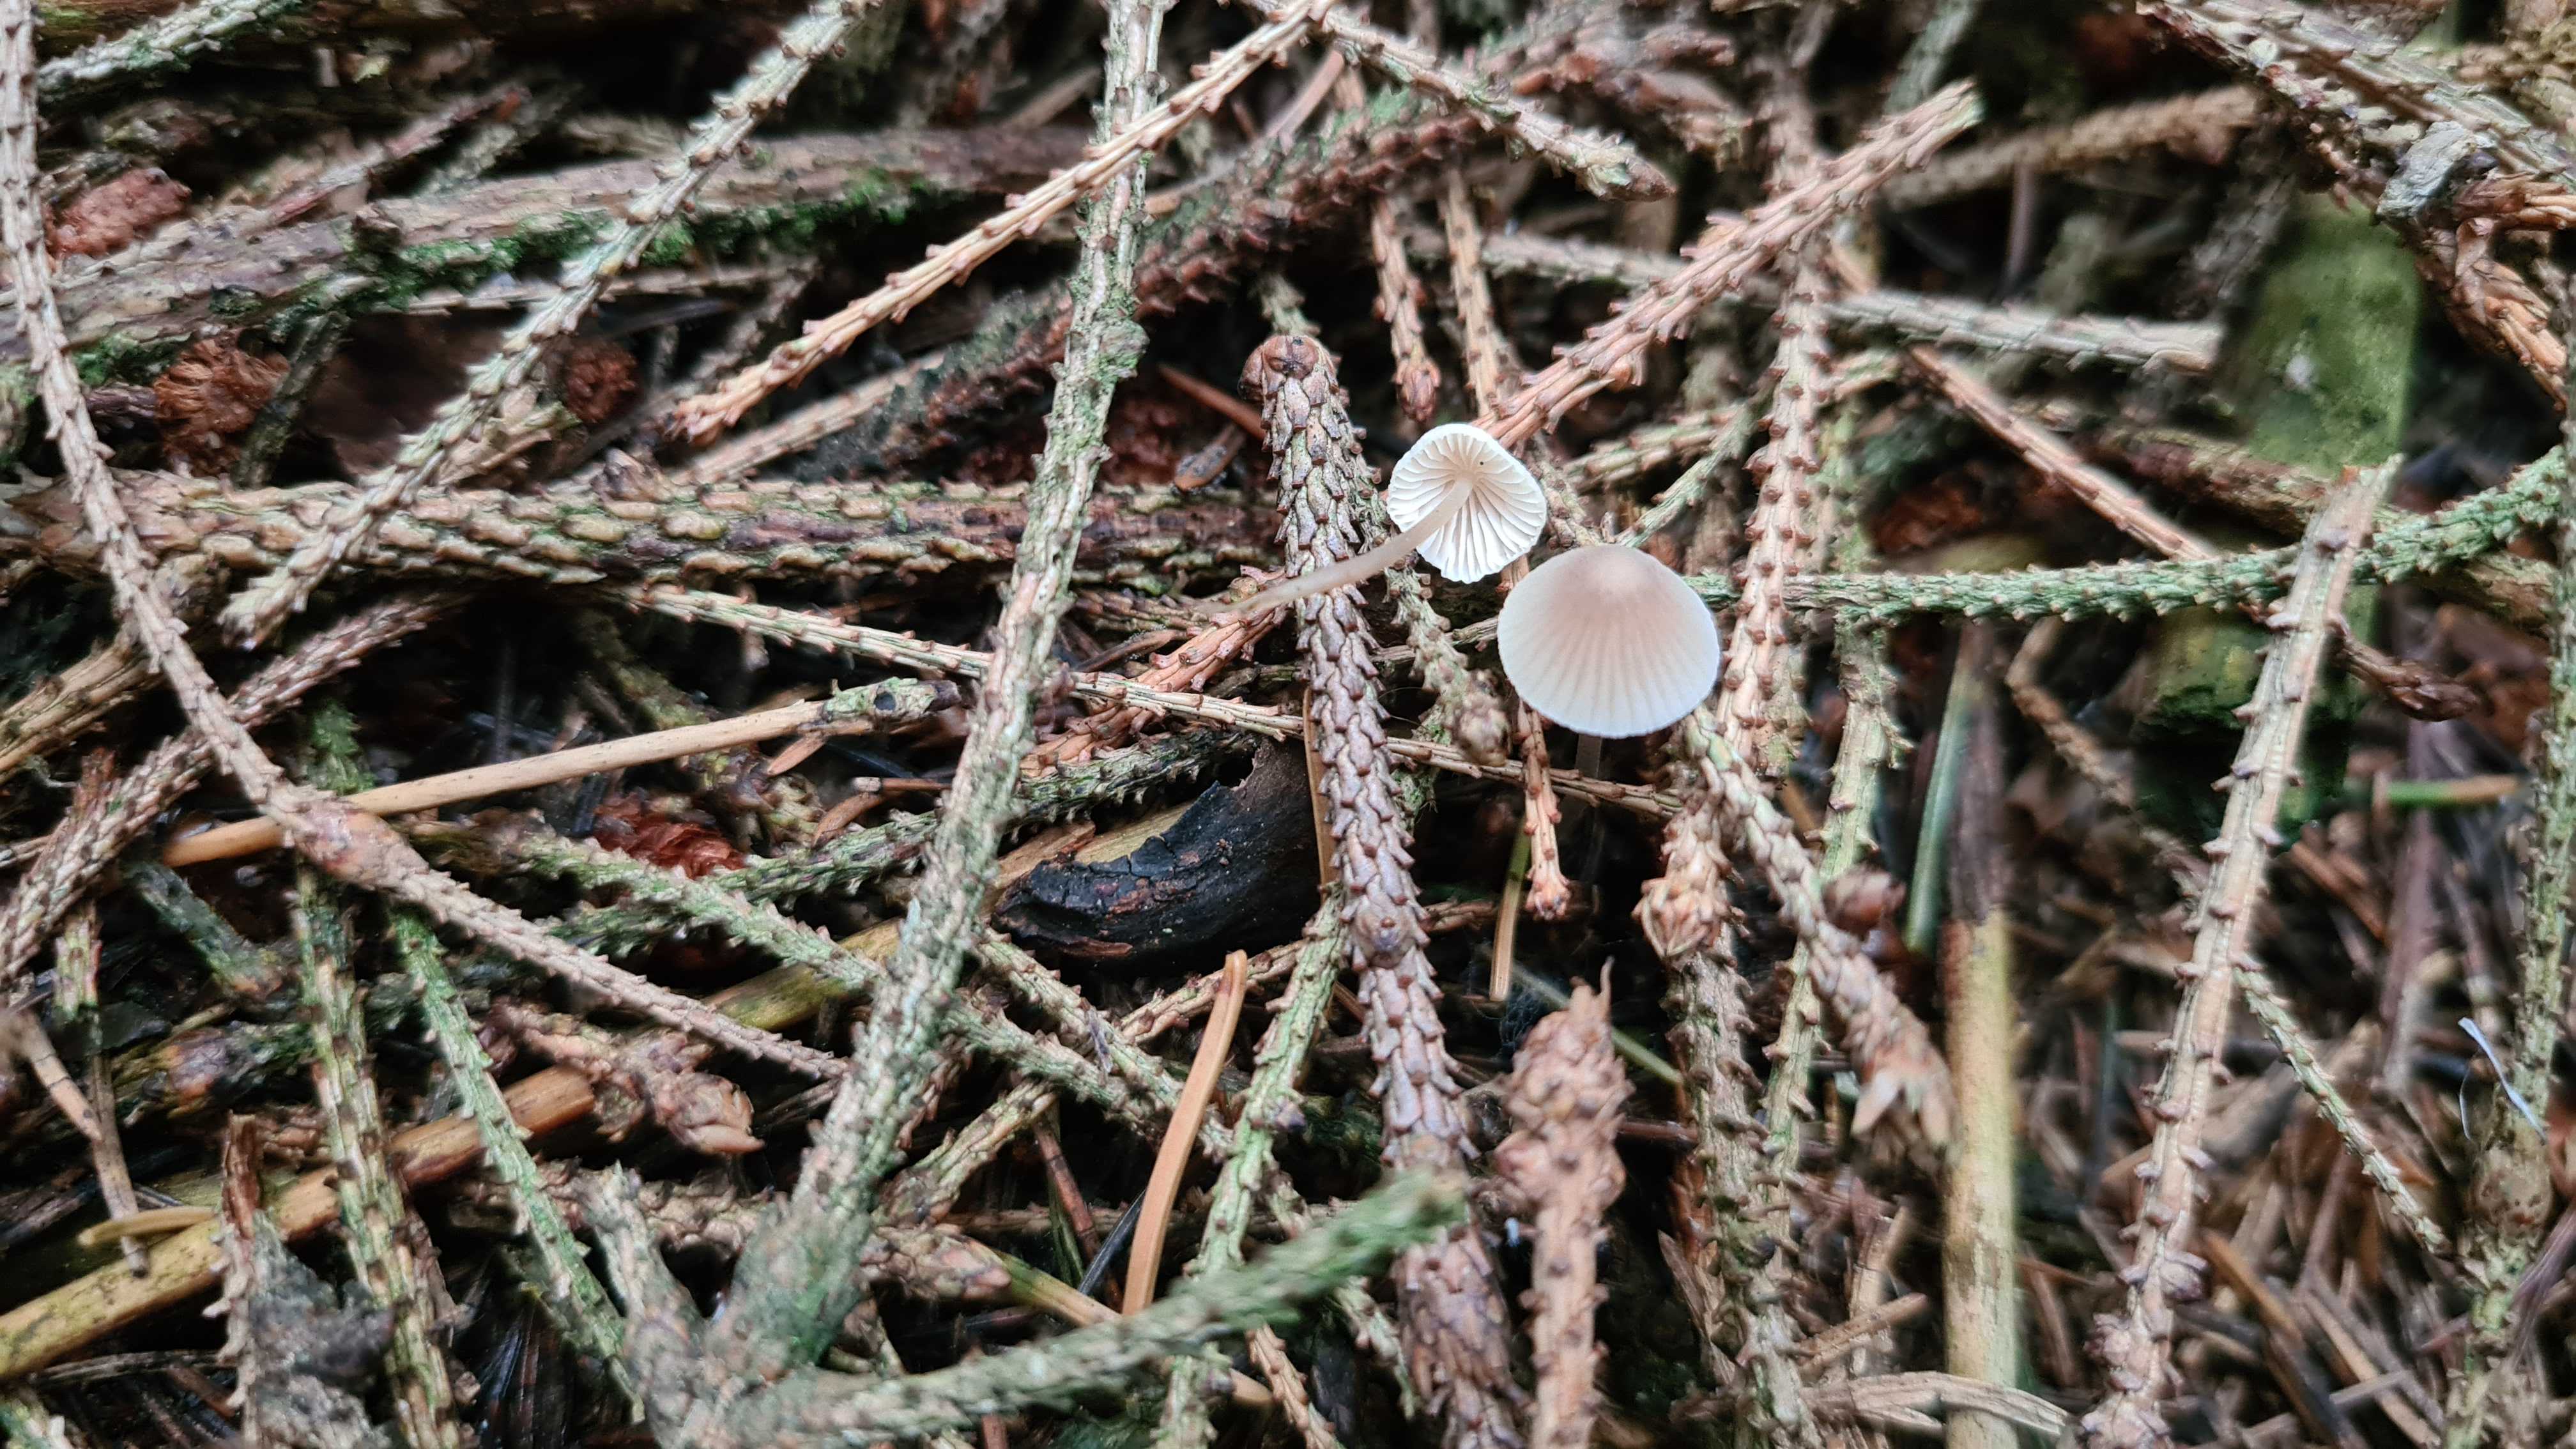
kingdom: Fungi
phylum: Basidiomycota
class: Agaricomycetes
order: Agaricales
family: Mycenaceae
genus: Mycena
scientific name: Mycena metata
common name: rødlig huesvamp
